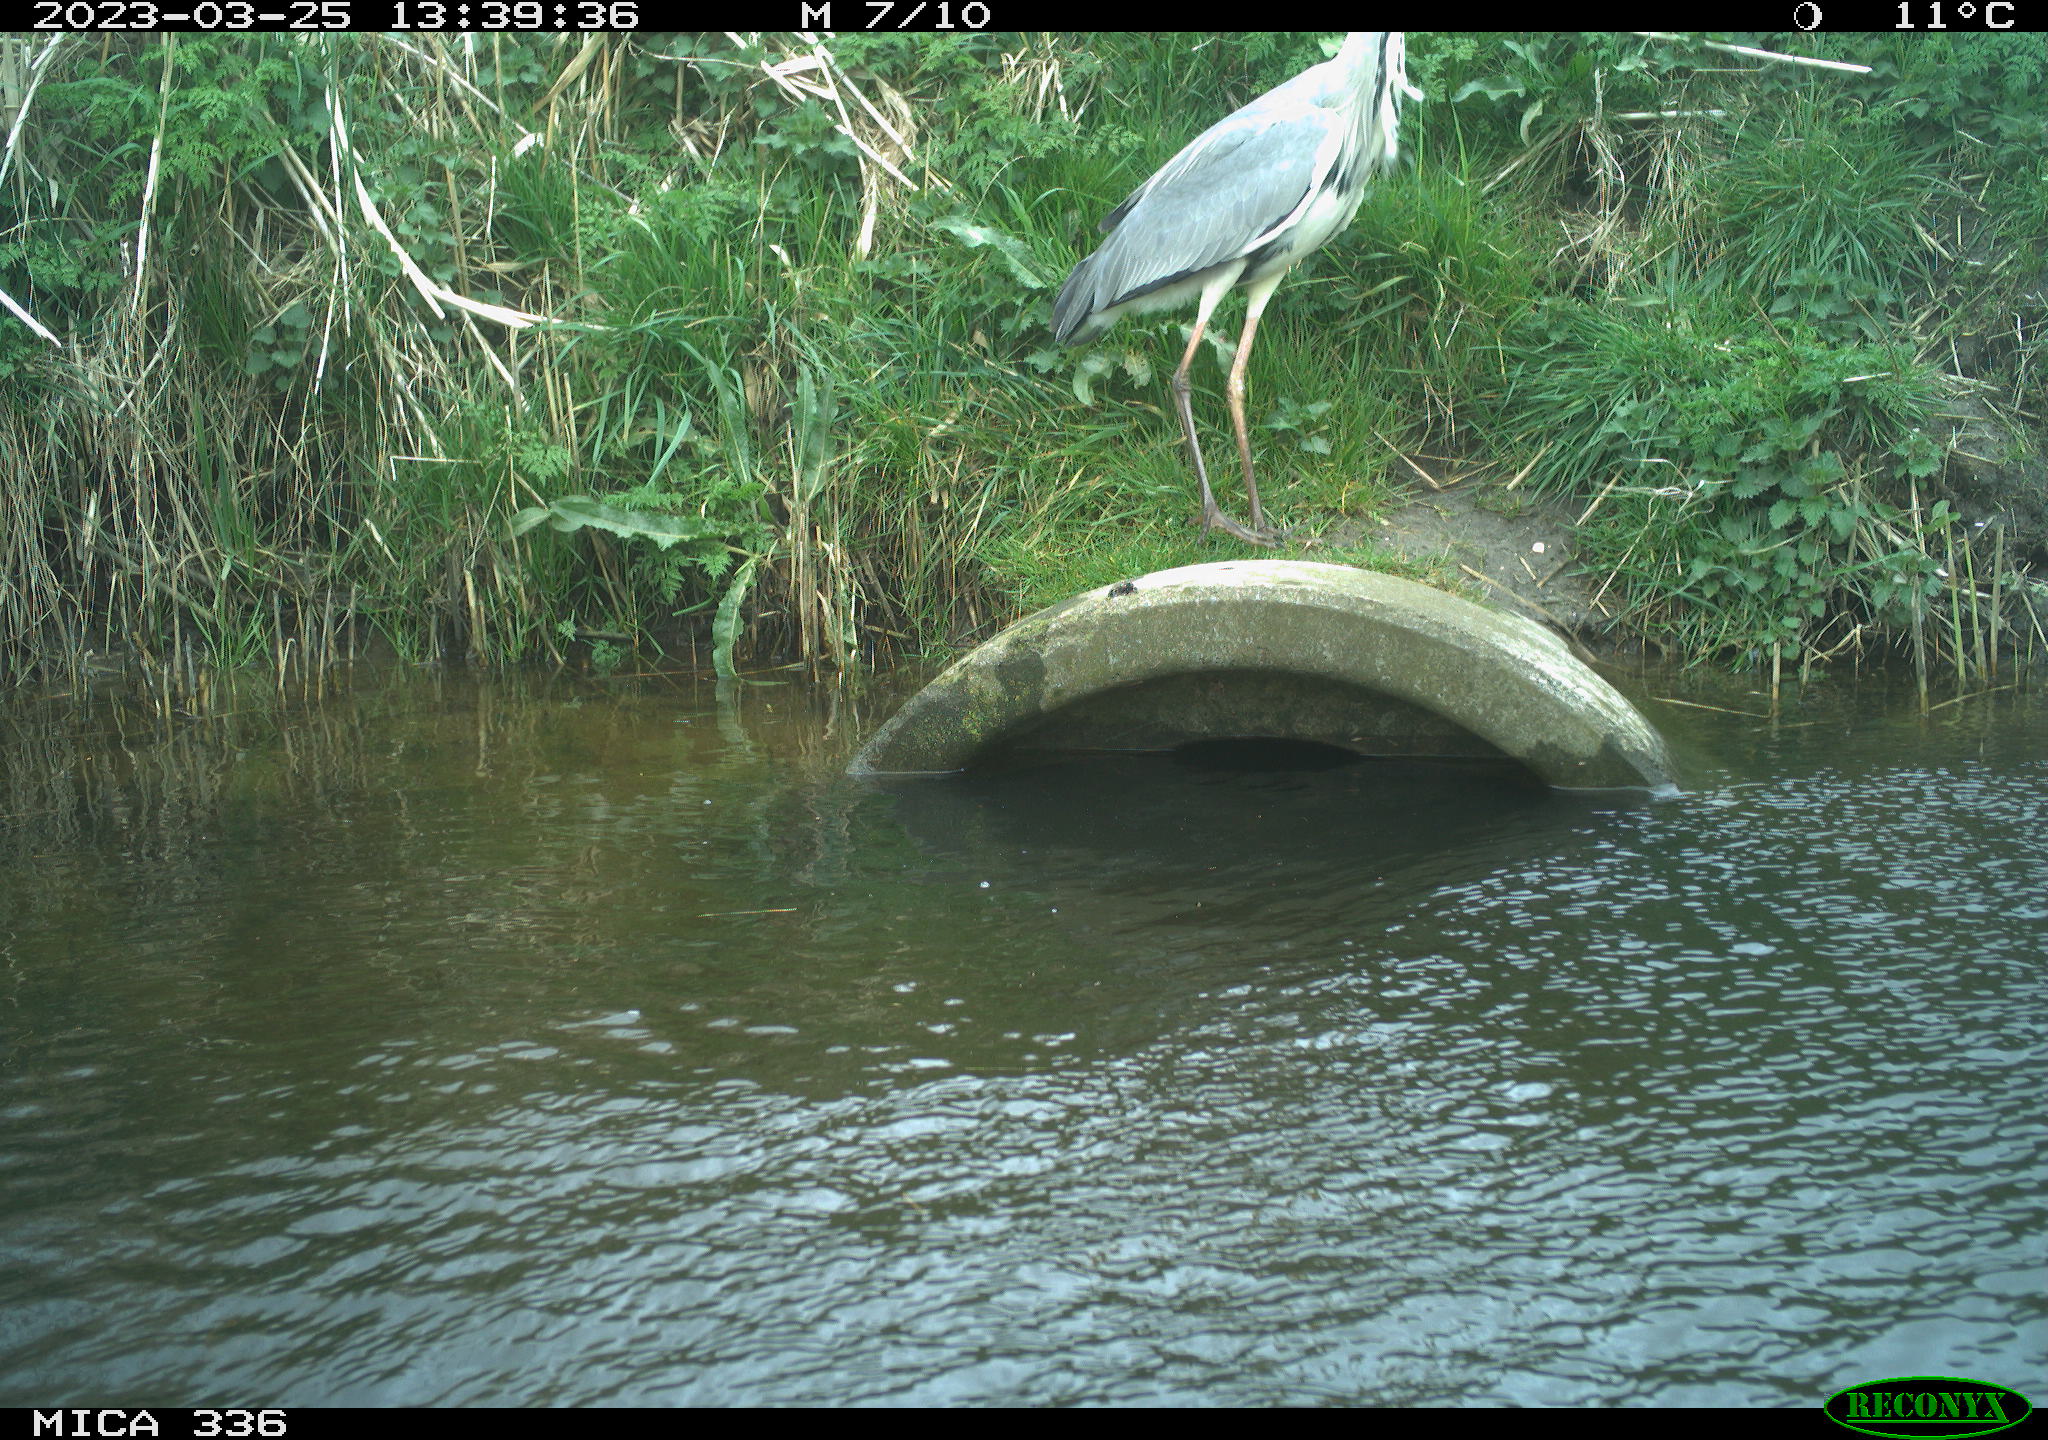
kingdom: Animalia
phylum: Chordata
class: Aves
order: Pelecaniformes
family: Ardeidae
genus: Ardea
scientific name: Ardea
